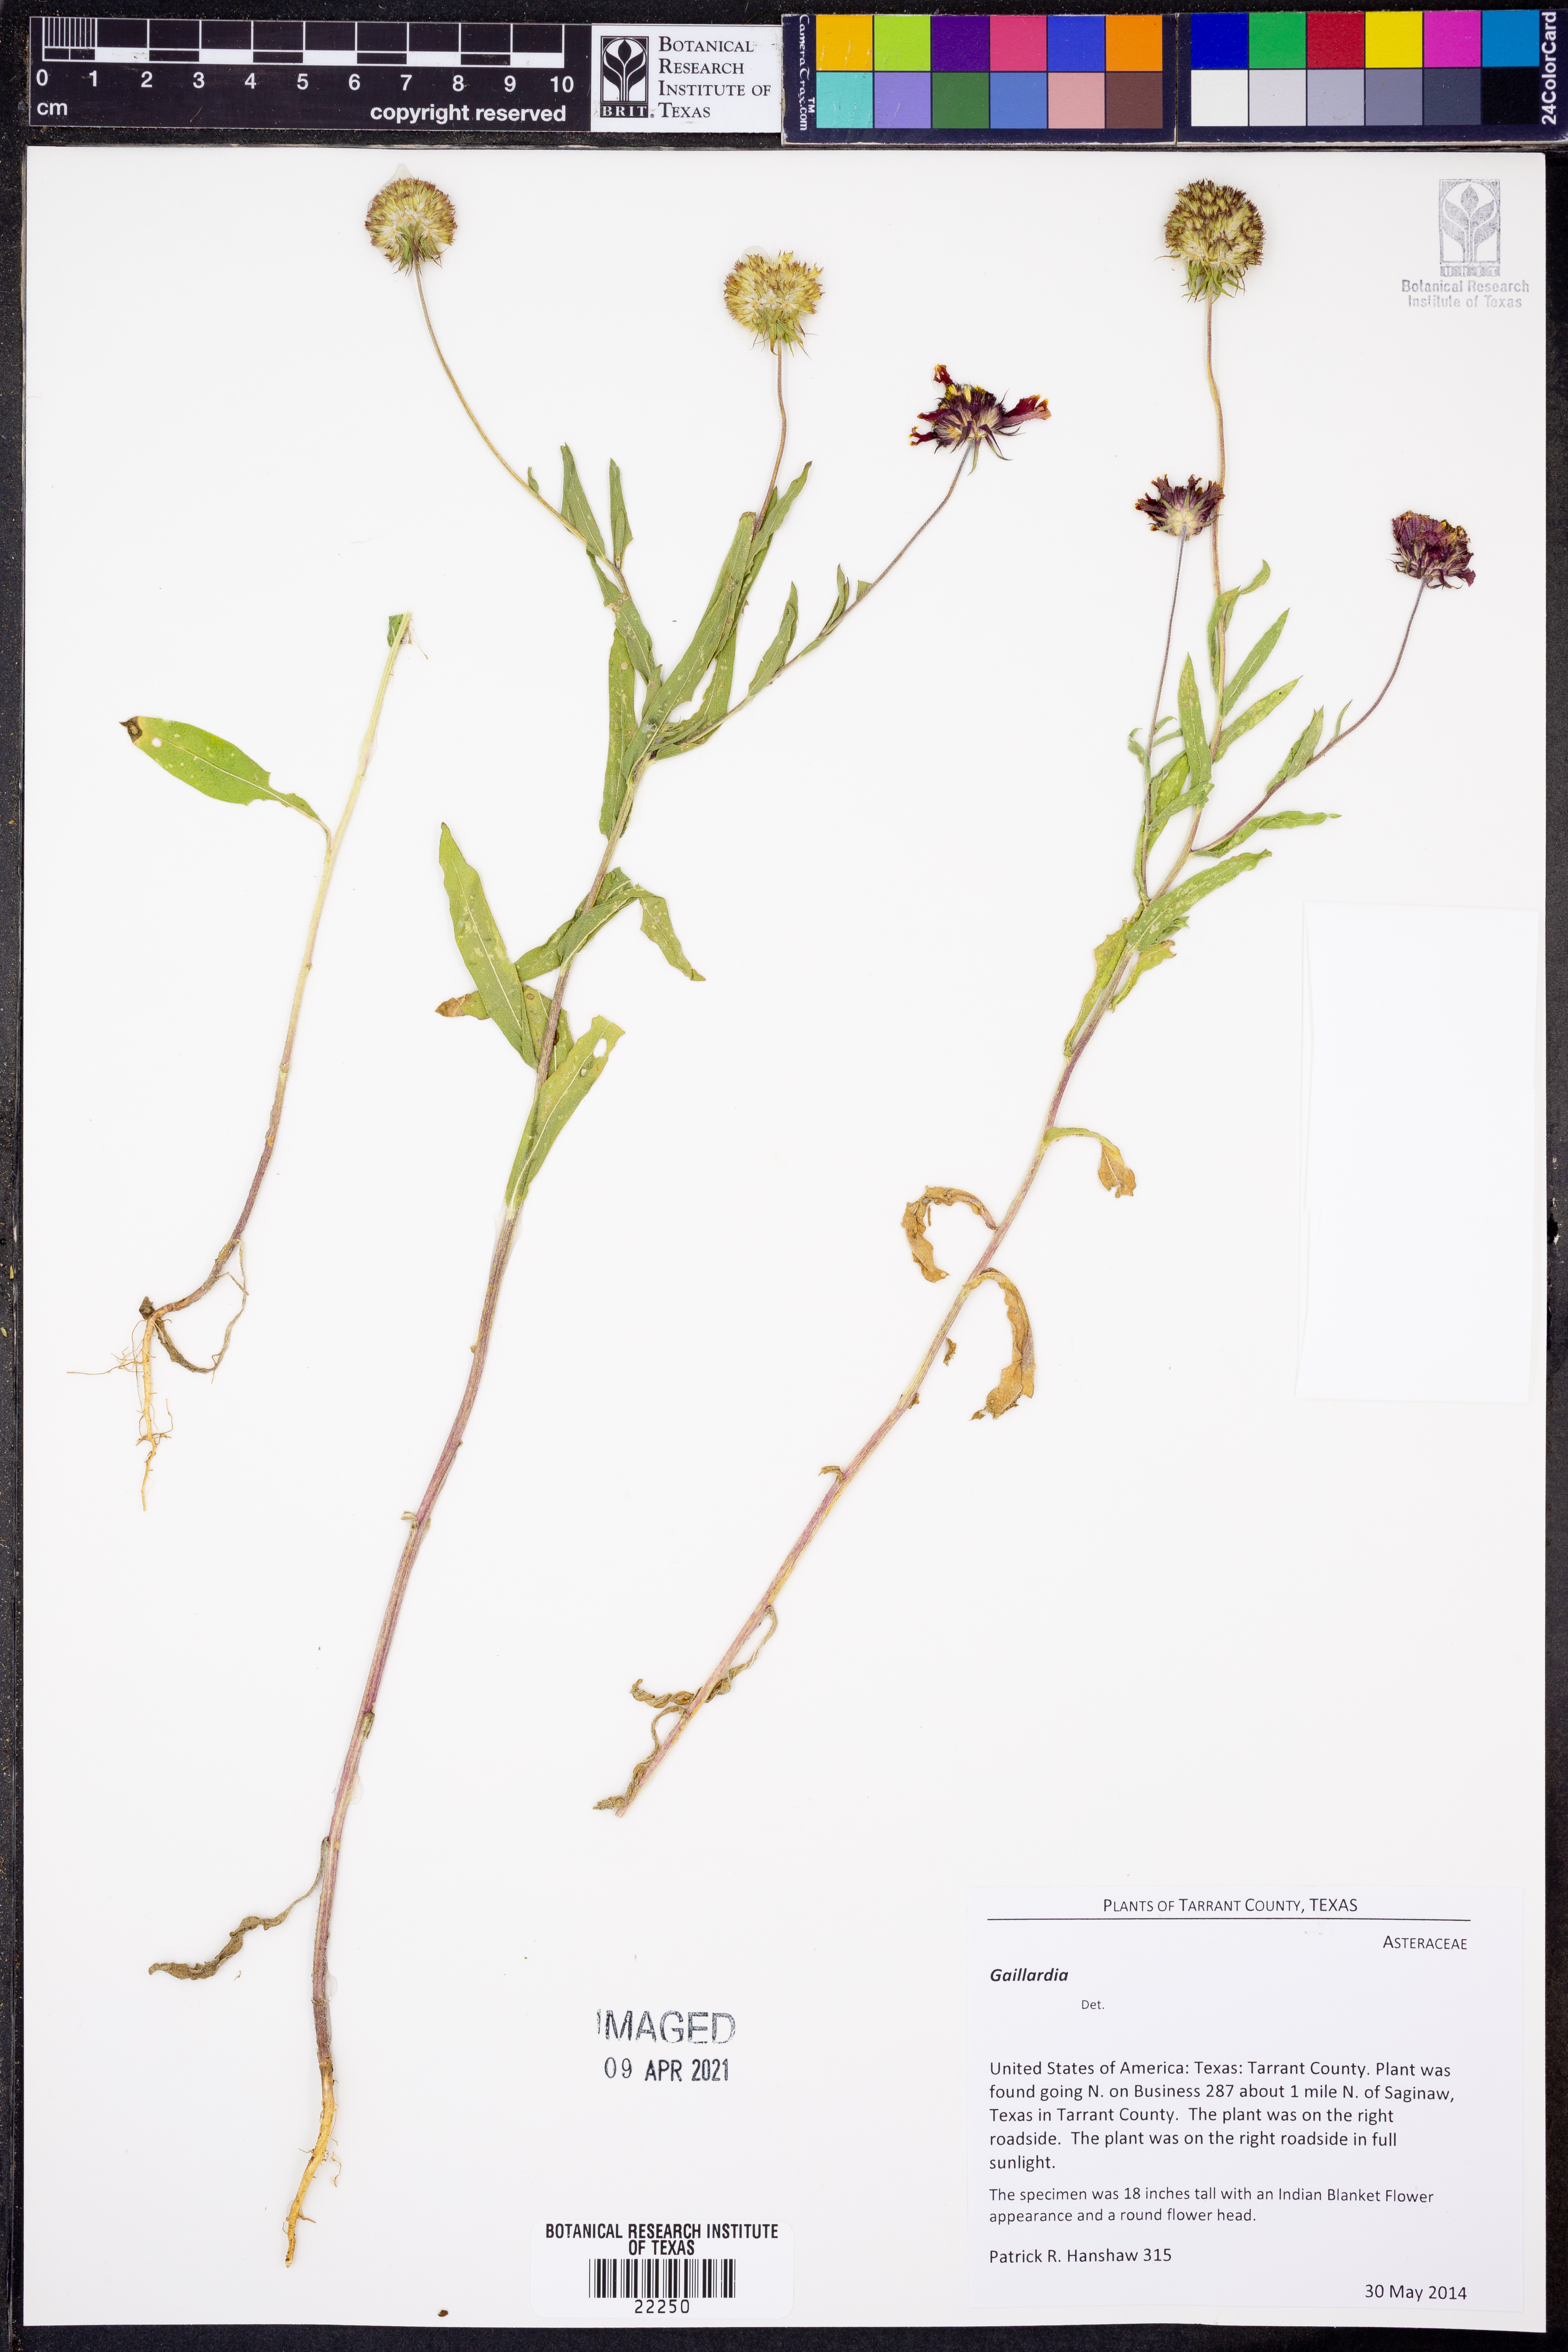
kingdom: Plantae
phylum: Tracheophyta
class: Magnoliopsida
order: Asterales
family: Asteraceae
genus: Gaillardia
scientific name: Gaillardia
